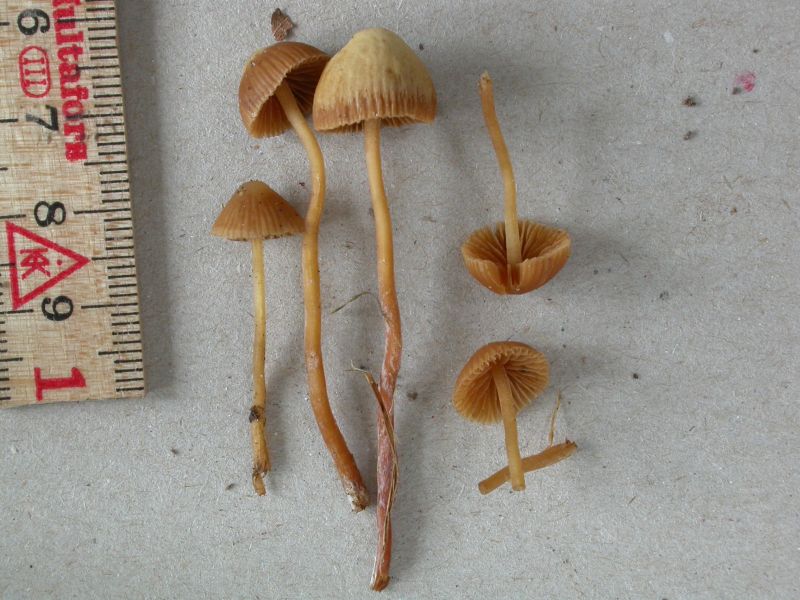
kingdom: Fungi
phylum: Basidiomycota
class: Agaricomycetes
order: Agaricales
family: Hymenogastraceae
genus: Galerina
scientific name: Galerina vittiformis
